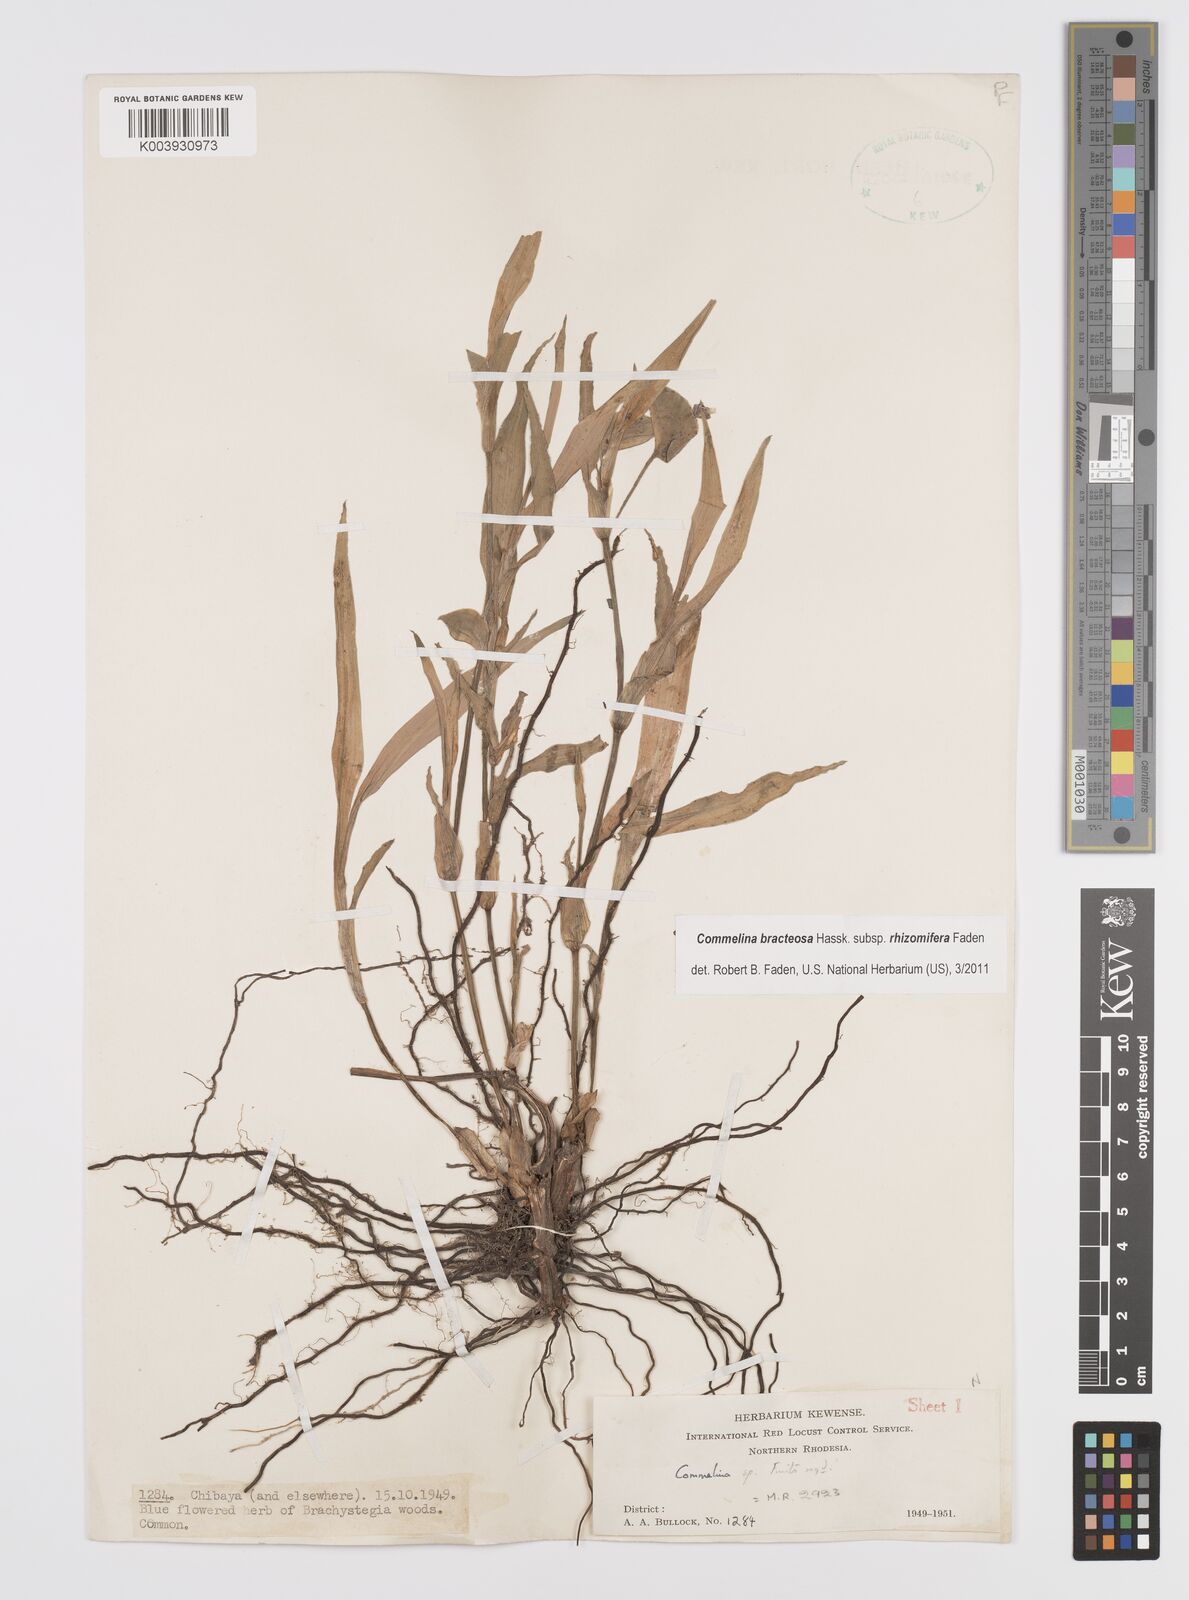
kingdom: Plantae
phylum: Tracheophyta
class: Liliopsida
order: Commelinales
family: Commelinaceae
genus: Commelina
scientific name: Commelina bracteosa
